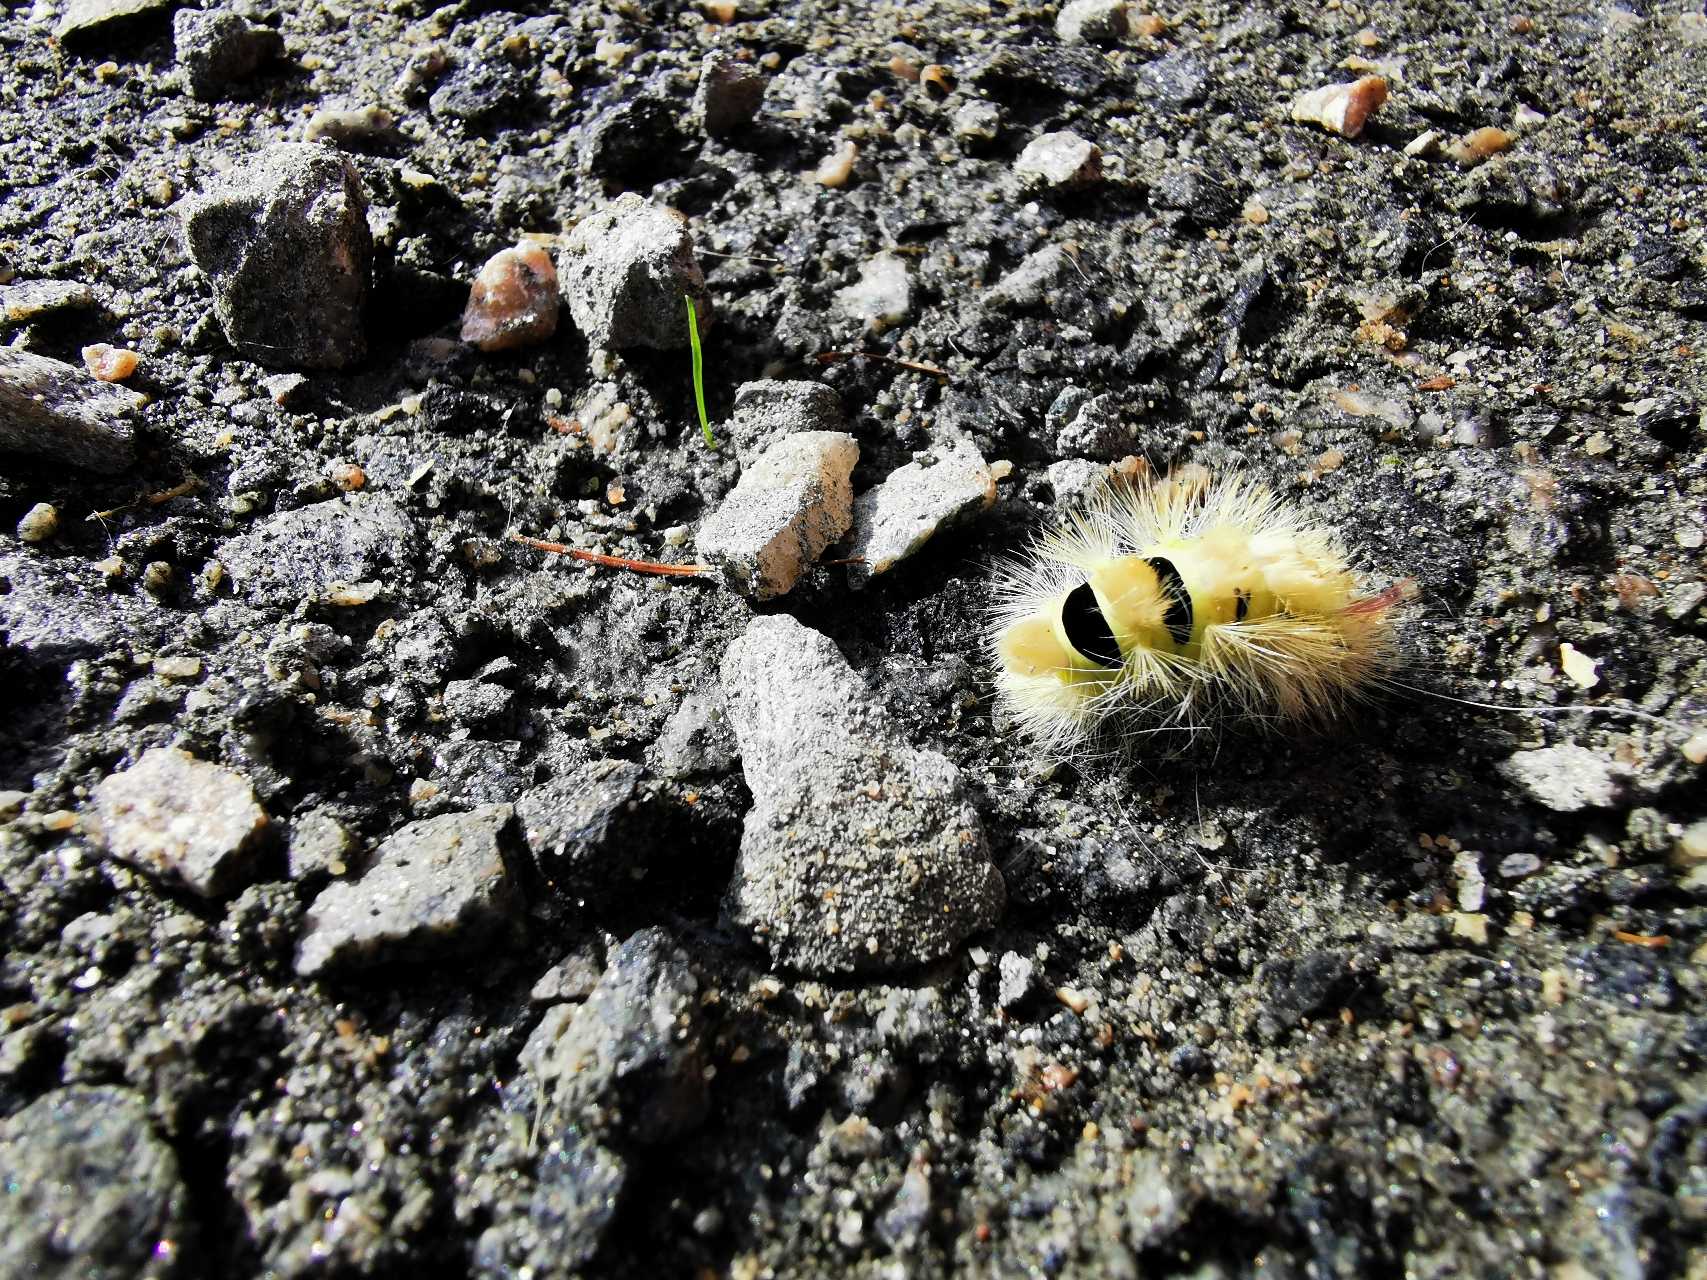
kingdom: Animalia
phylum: Arthropoda
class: Insecta
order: Lepidoptera
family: Erebidae
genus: Calliteara
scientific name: Calliteara pudibunda
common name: Bøgenonne
